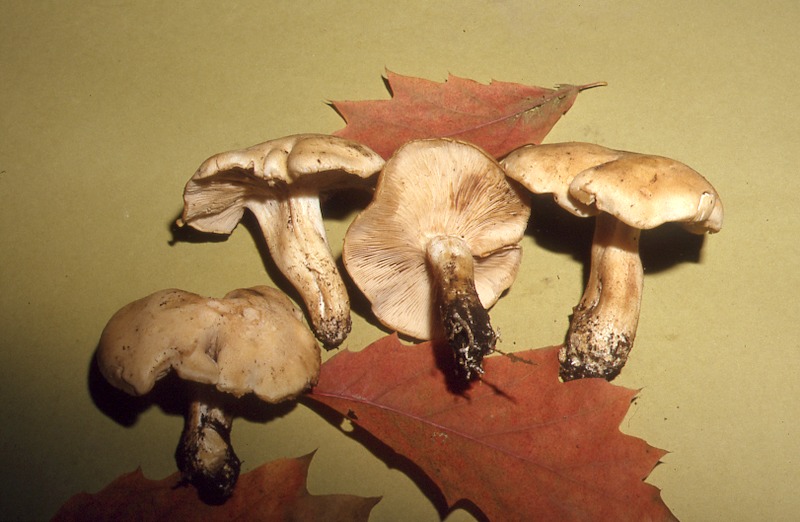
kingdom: Fungi
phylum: Basidiomycota
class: Agaricomycetes
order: Agaricales
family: Entolomataceae
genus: Rhodocybe
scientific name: Rhodocybe truncata
